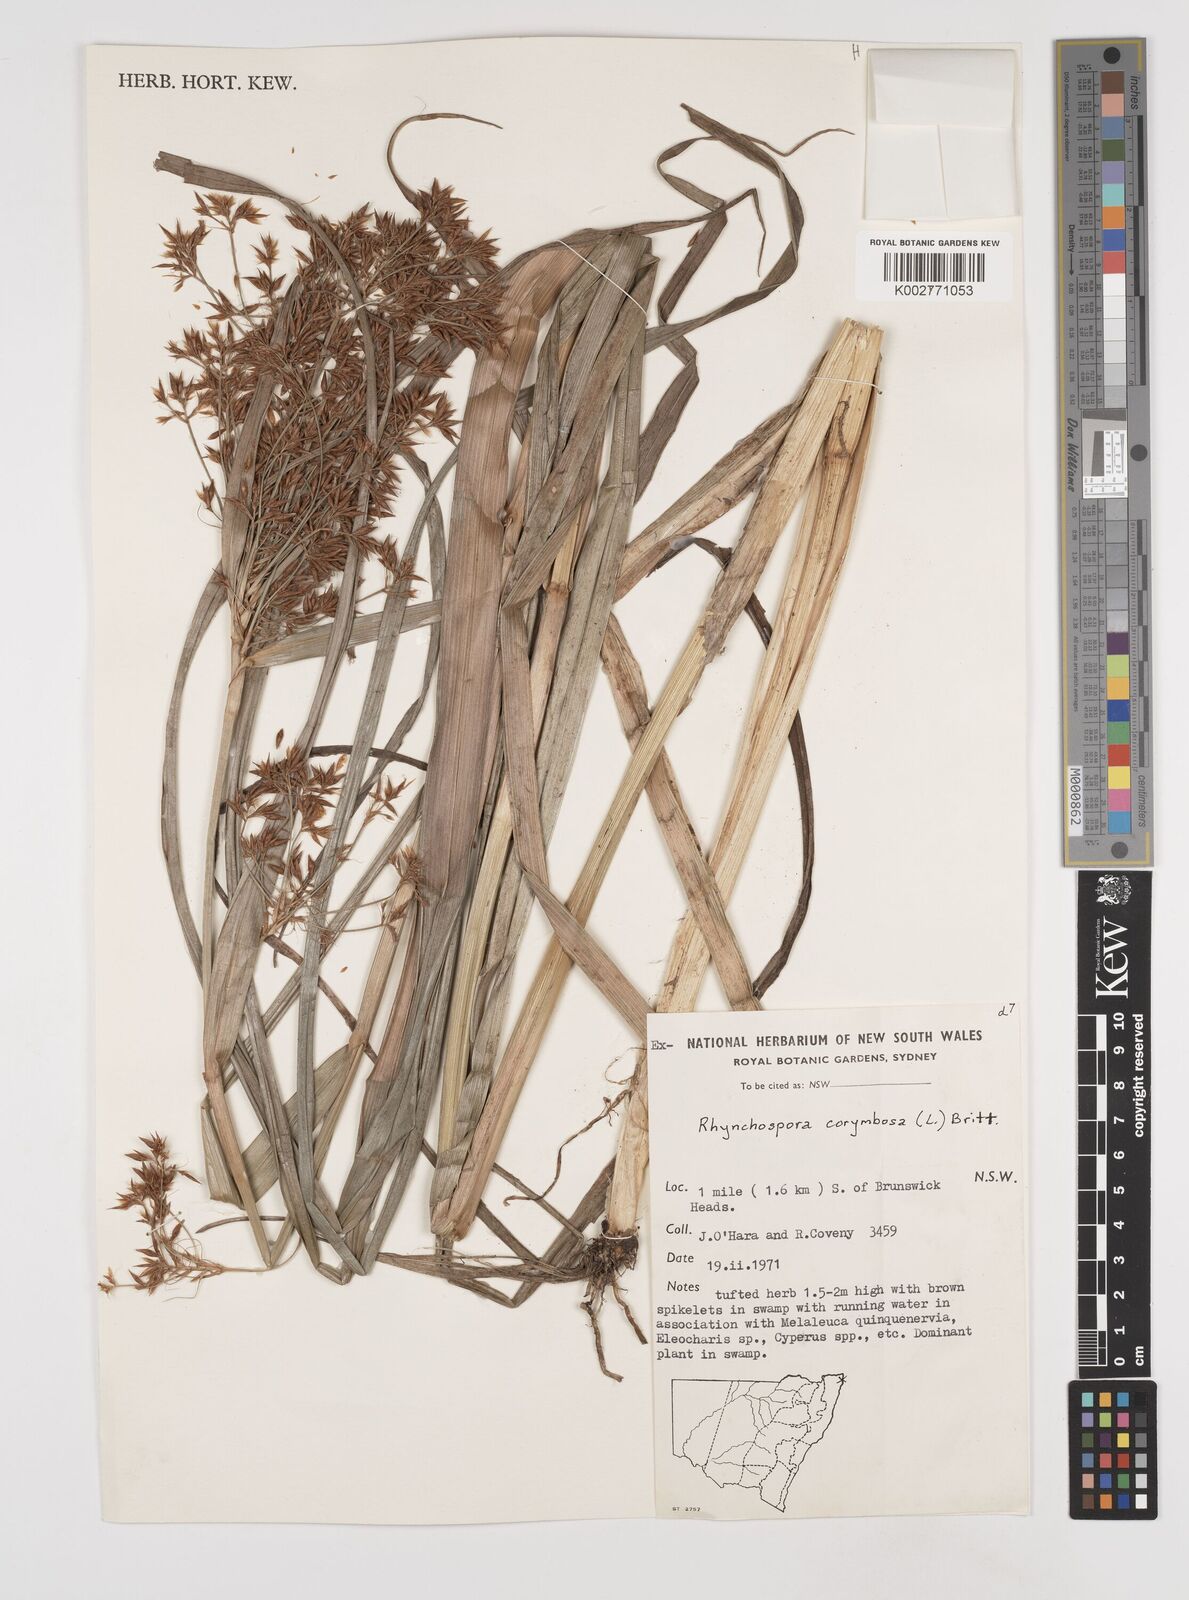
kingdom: Plantae
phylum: Tracheophyta
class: Liliopsida
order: Poales
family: Cyperaceae
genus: Rhynchospora
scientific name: Rhynchospora corymbosa
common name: Golden beak sedge
